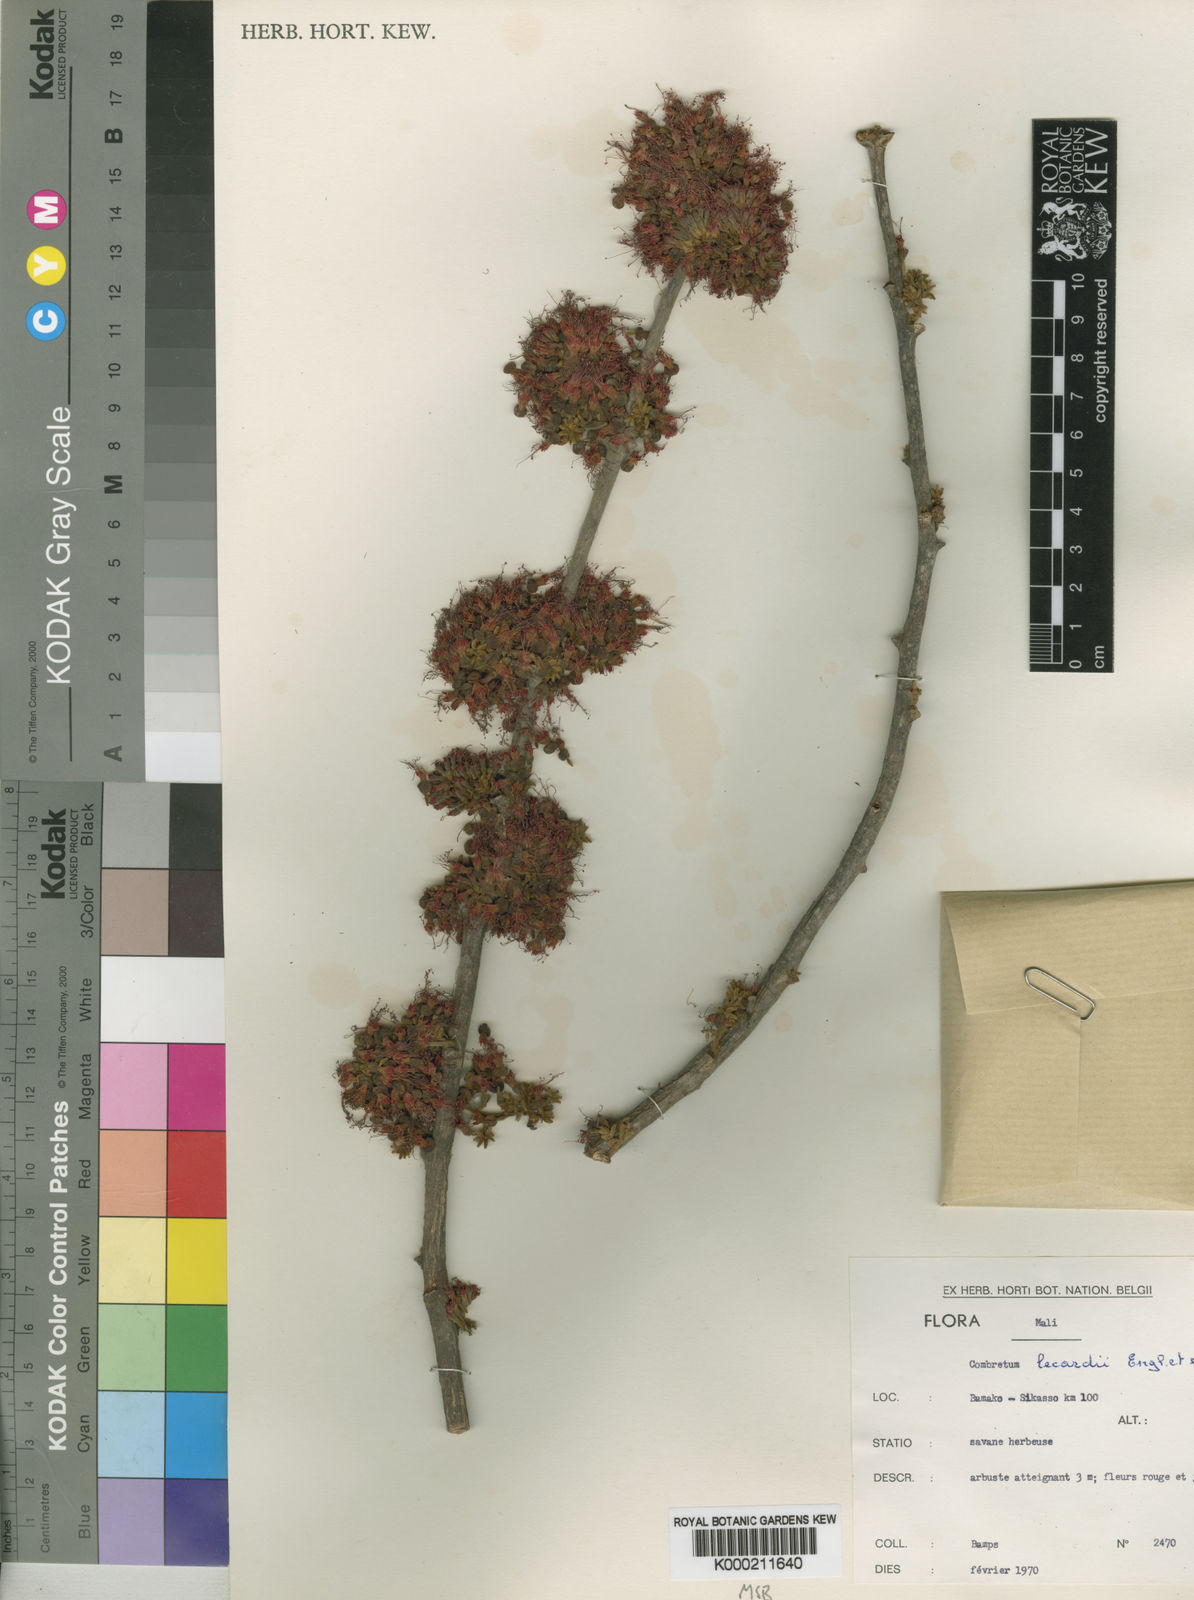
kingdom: Plantae
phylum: Tracheophyta
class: Magnoliopsida
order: Myrtales
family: Combretaceae
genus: Combretum
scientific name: Combretum lecardii
